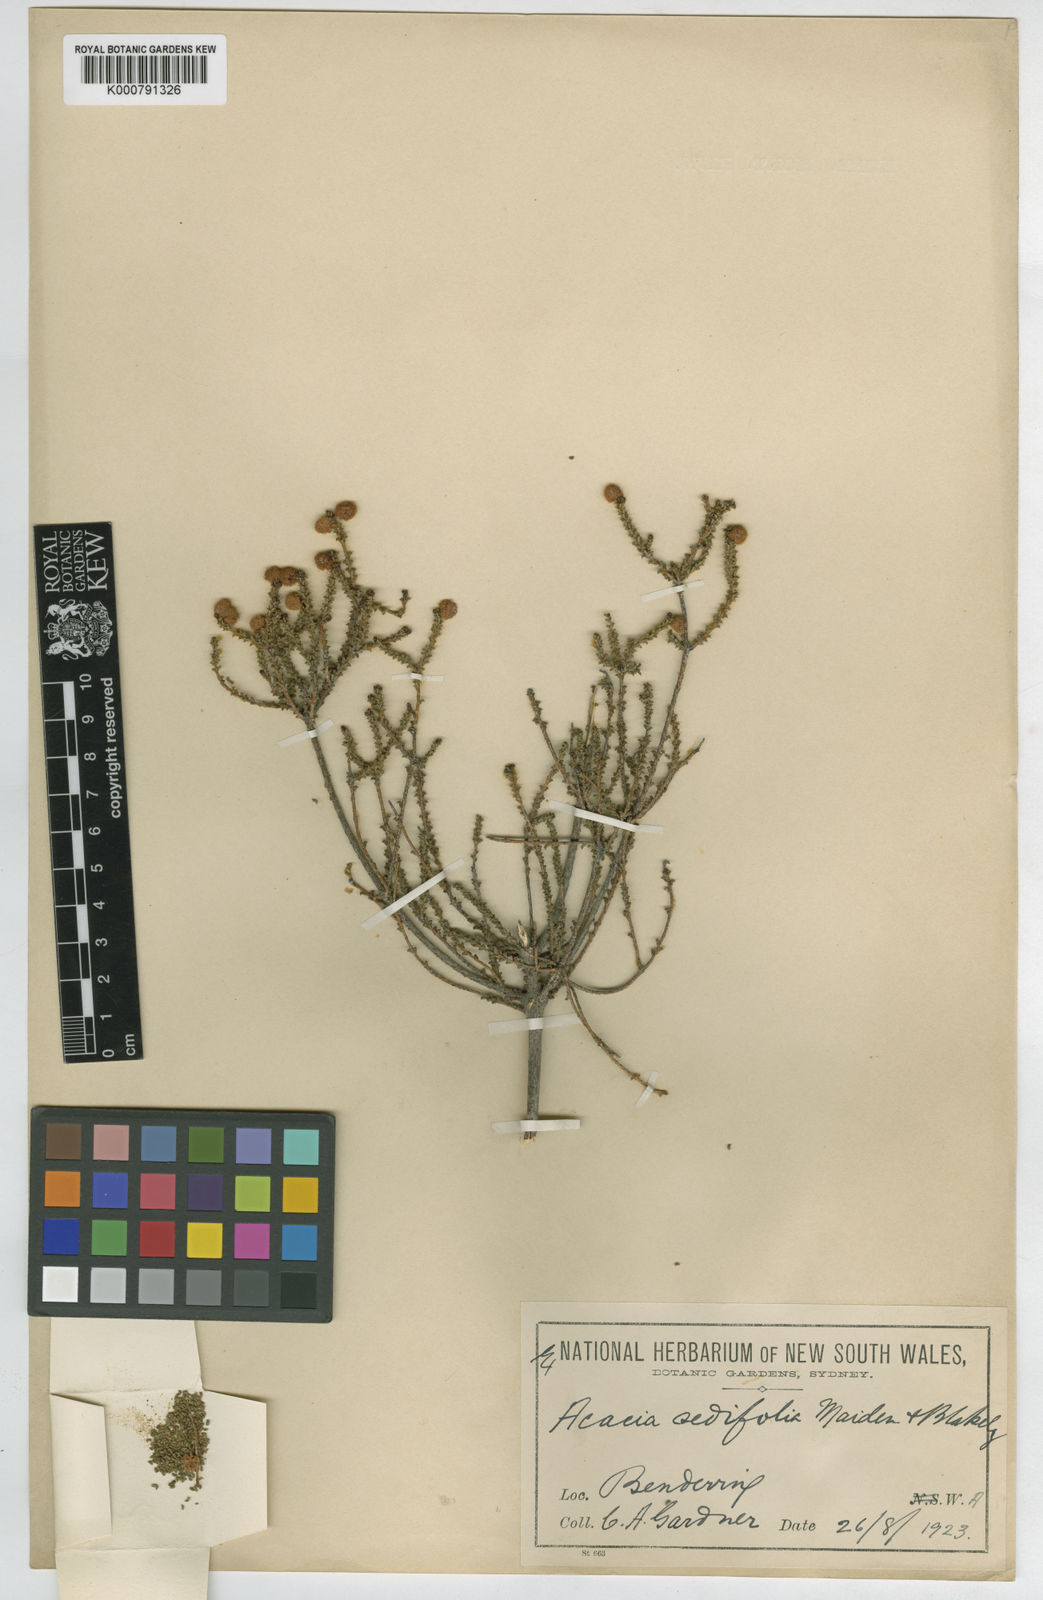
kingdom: Plantae
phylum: Tracheophyta
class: Magnoliopsida
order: Fabales
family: Fabaceae
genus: Acacia
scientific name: Acacia sedifolia
